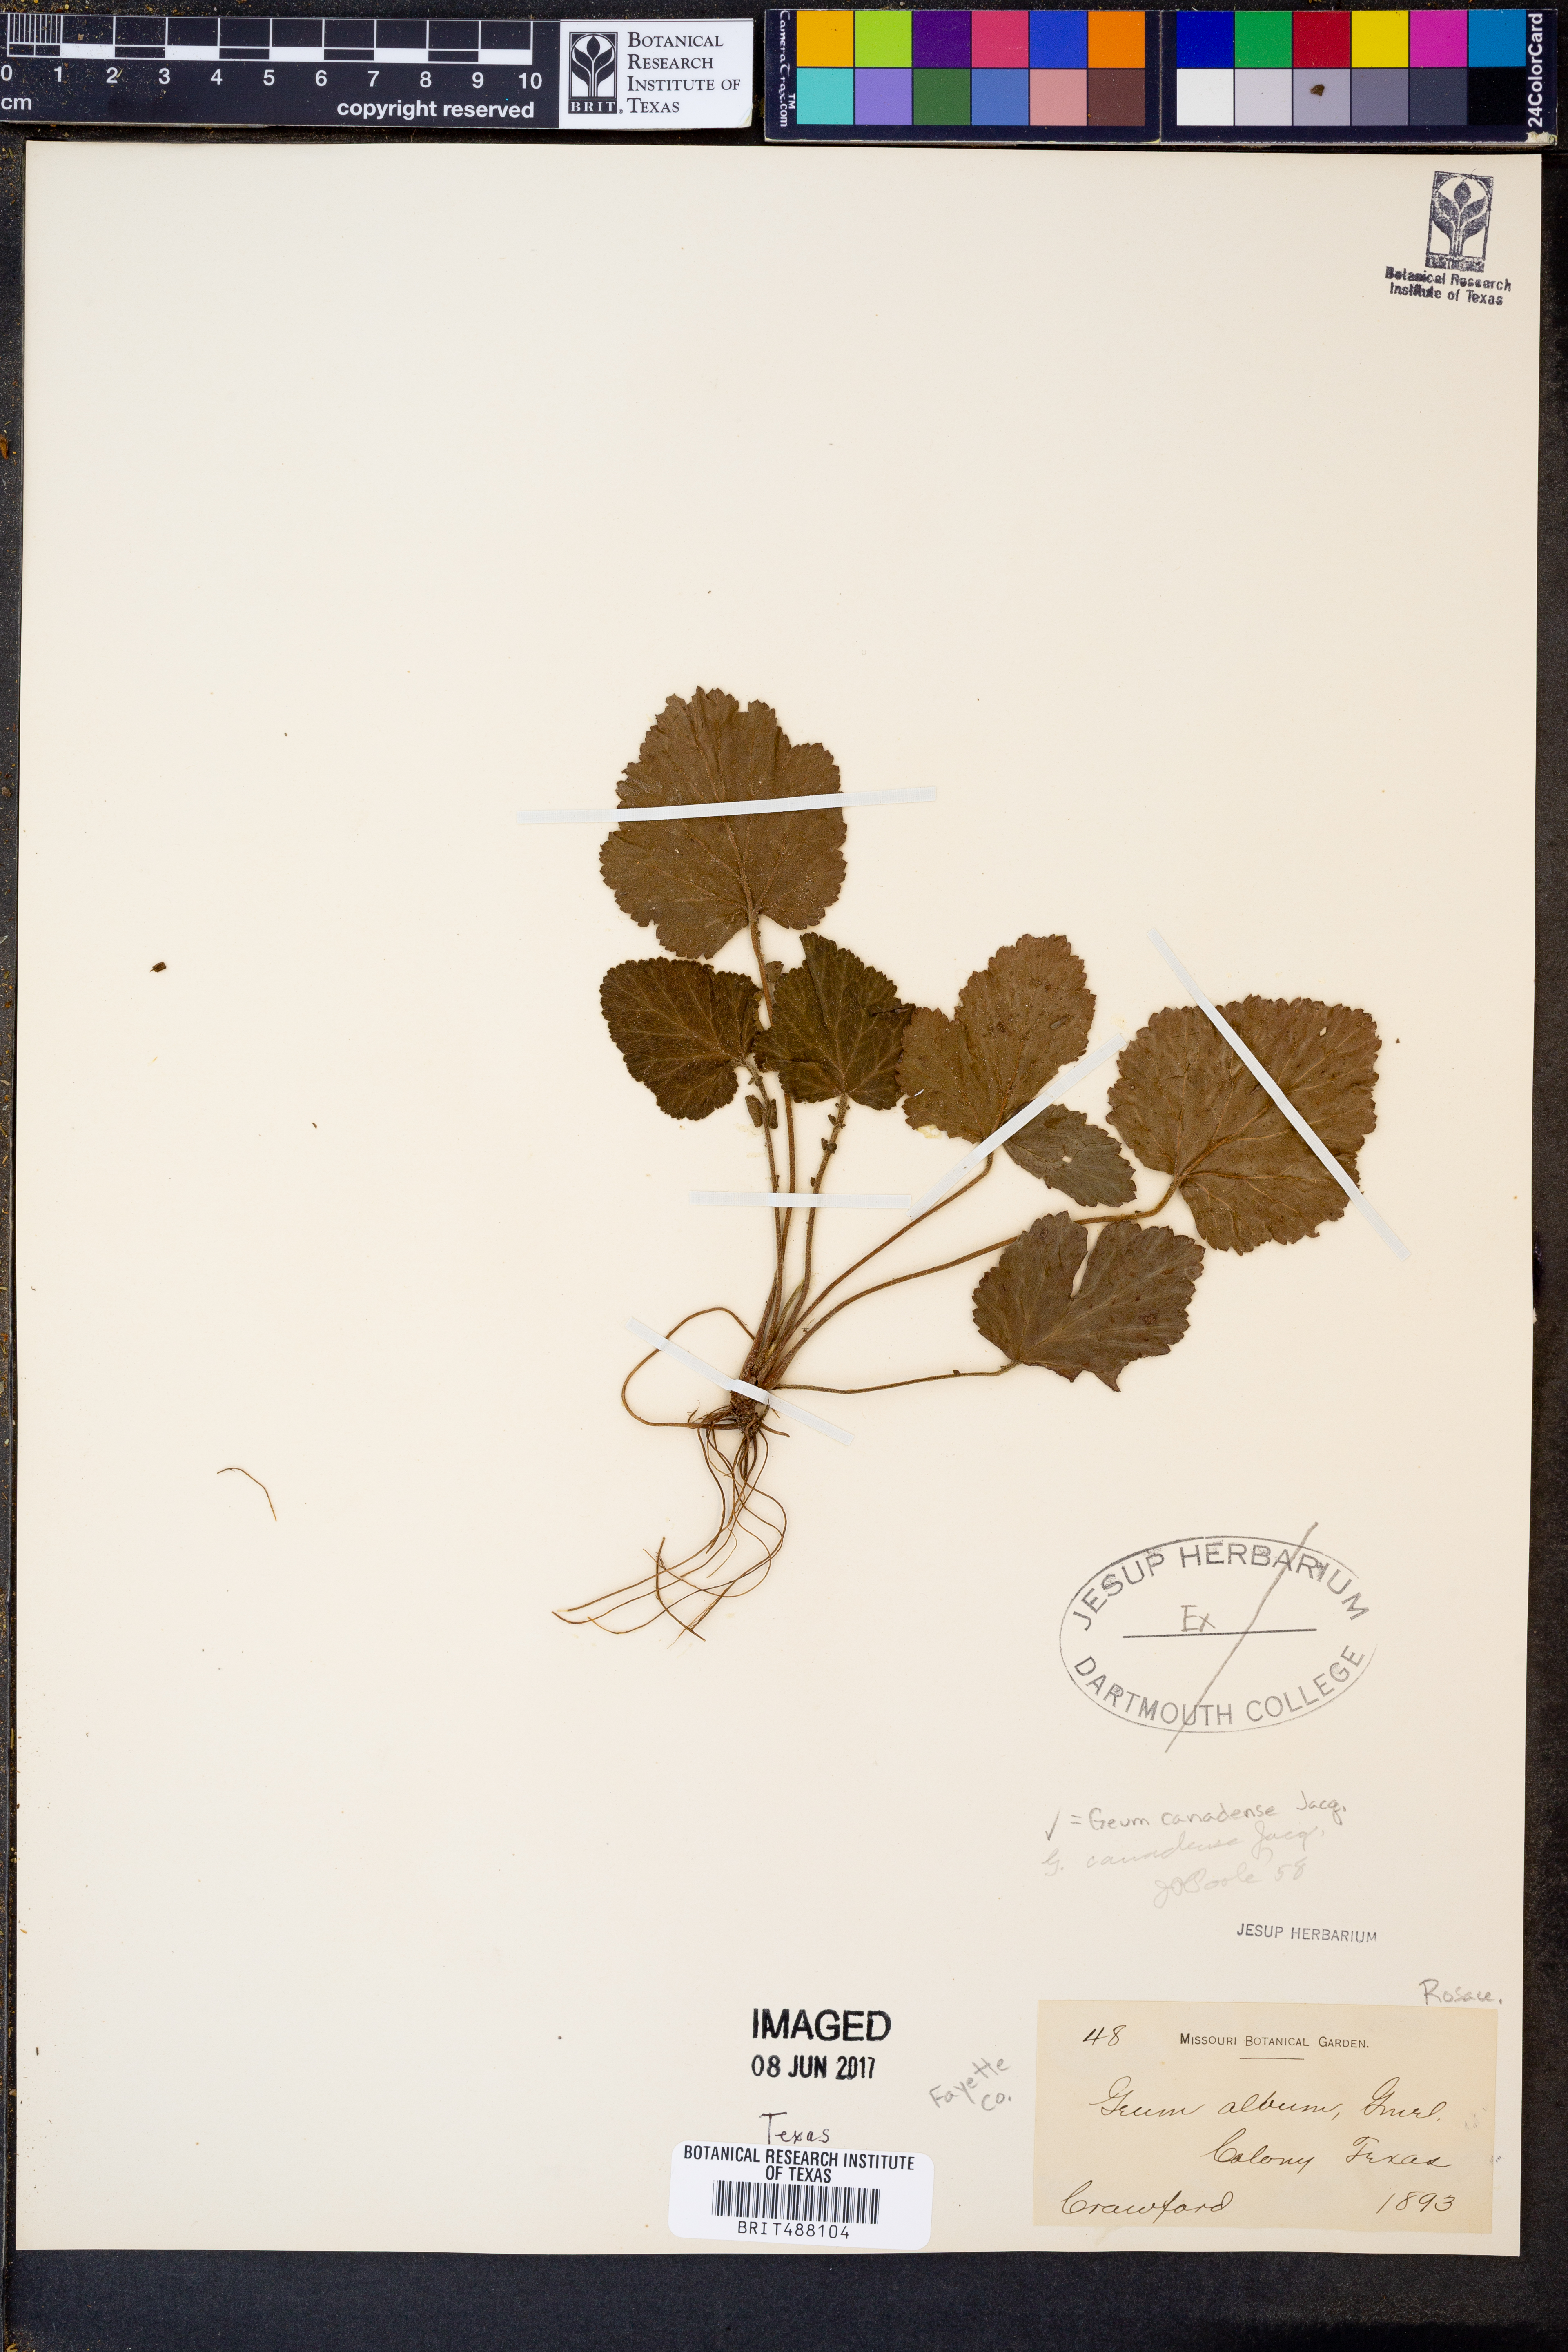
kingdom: Plantae
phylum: Tracheophyta
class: Magnoliopsida
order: Rosales
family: Rosaceae
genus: Geum
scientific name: Geum canadense
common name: White avens
